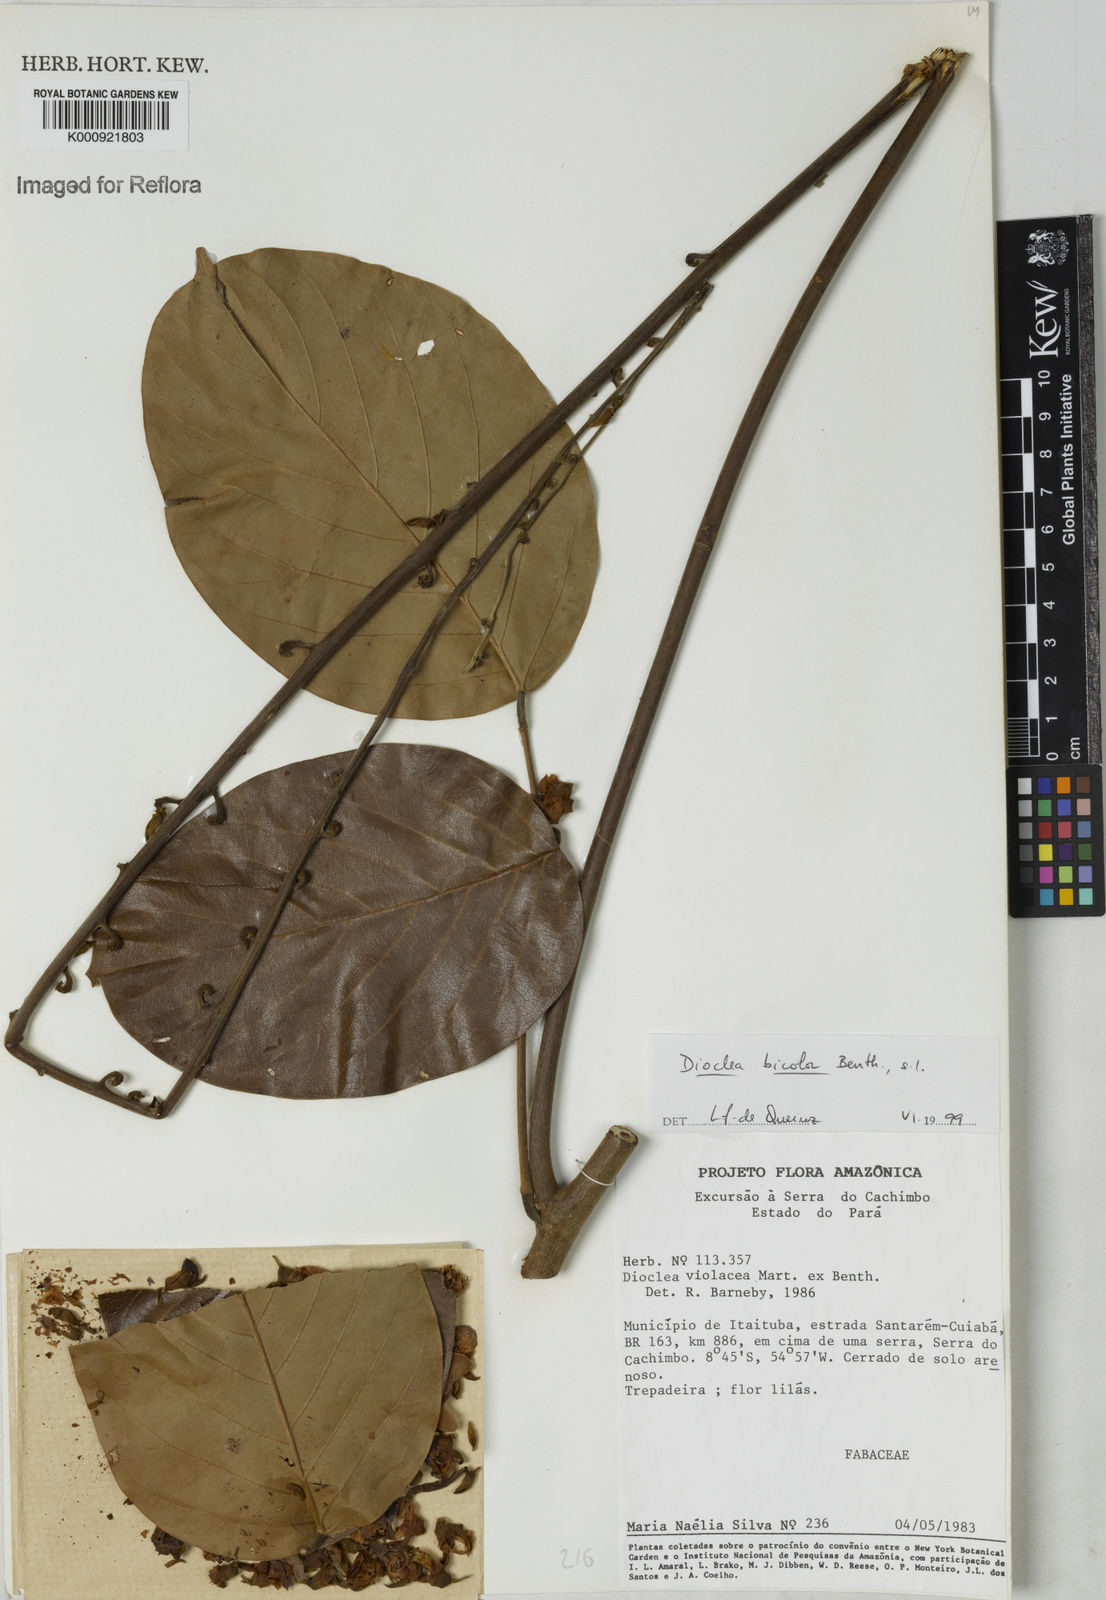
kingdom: Plantae
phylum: Tracheophyta
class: Magnoliopsida
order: Fabales
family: Fabaceae
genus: Macropsychanthus
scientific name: Macropsychanthus bicolor
